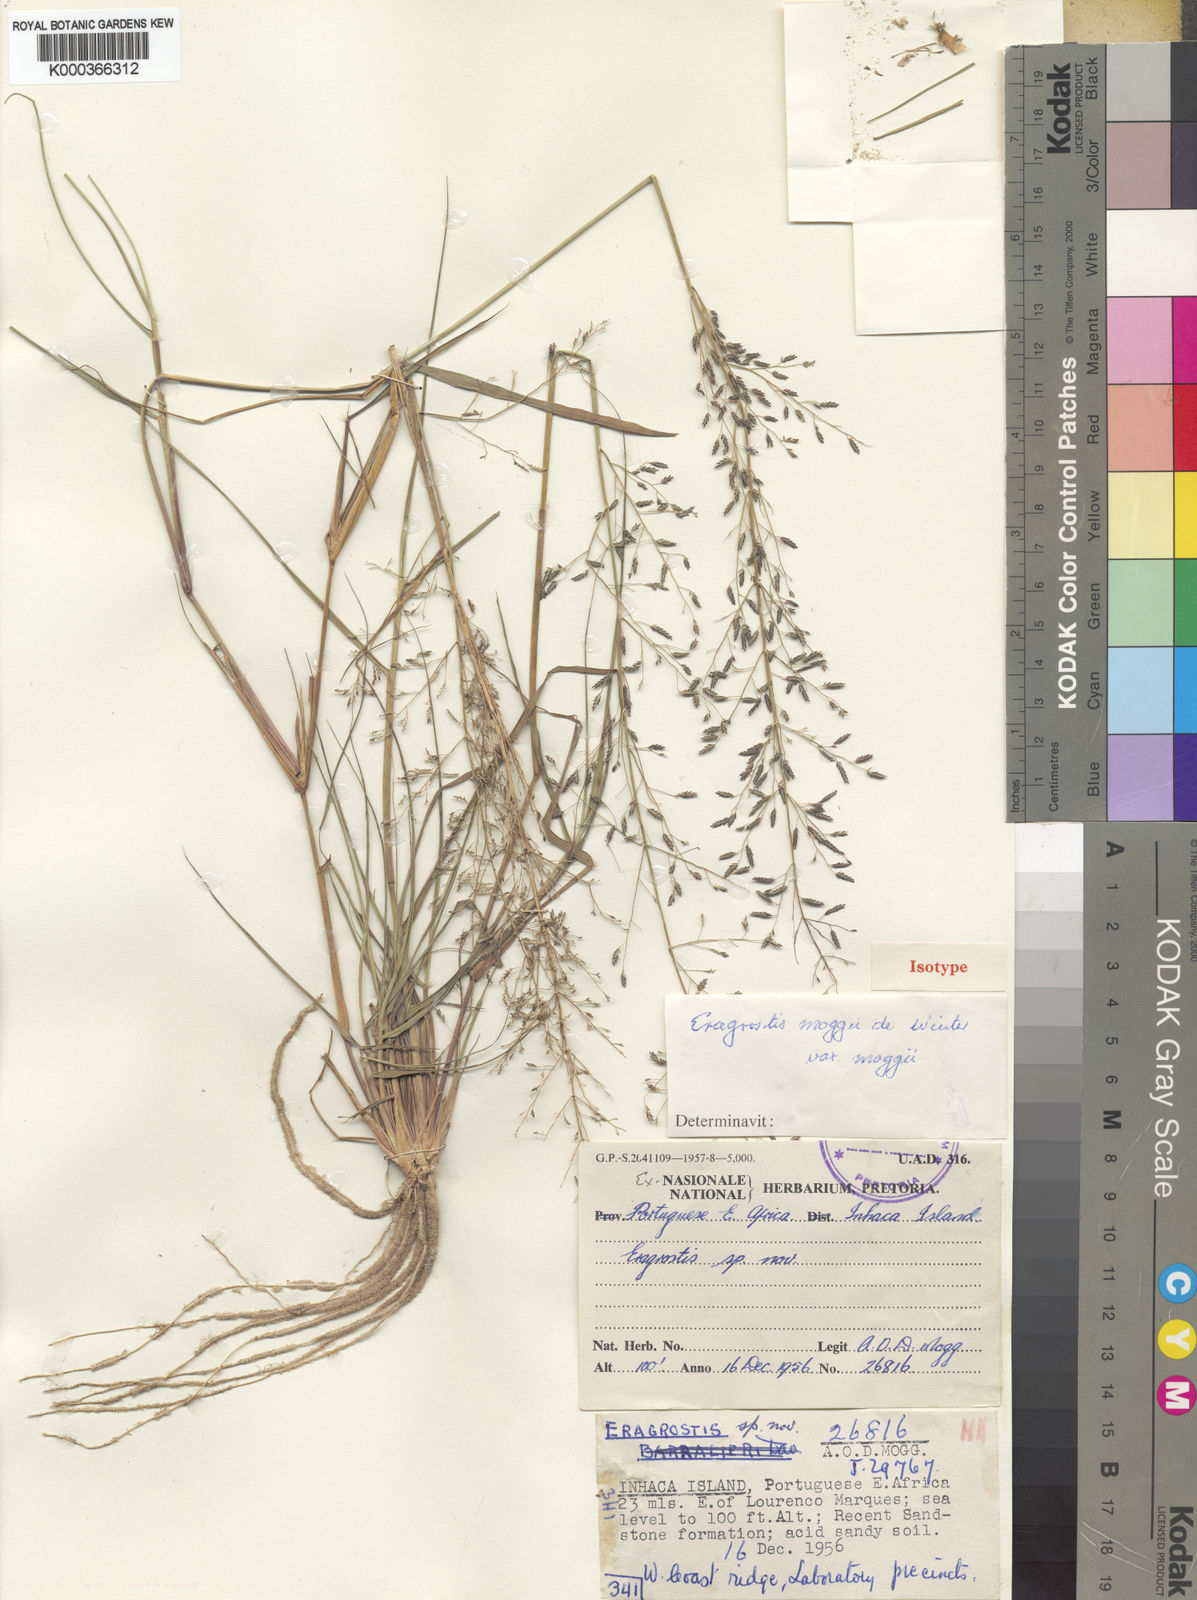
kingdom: Plantae
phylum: Tracheophyta
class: Liliopsida
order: Poales
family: Poaceae
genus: Eragrostis
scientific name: Eragrostis moggii
